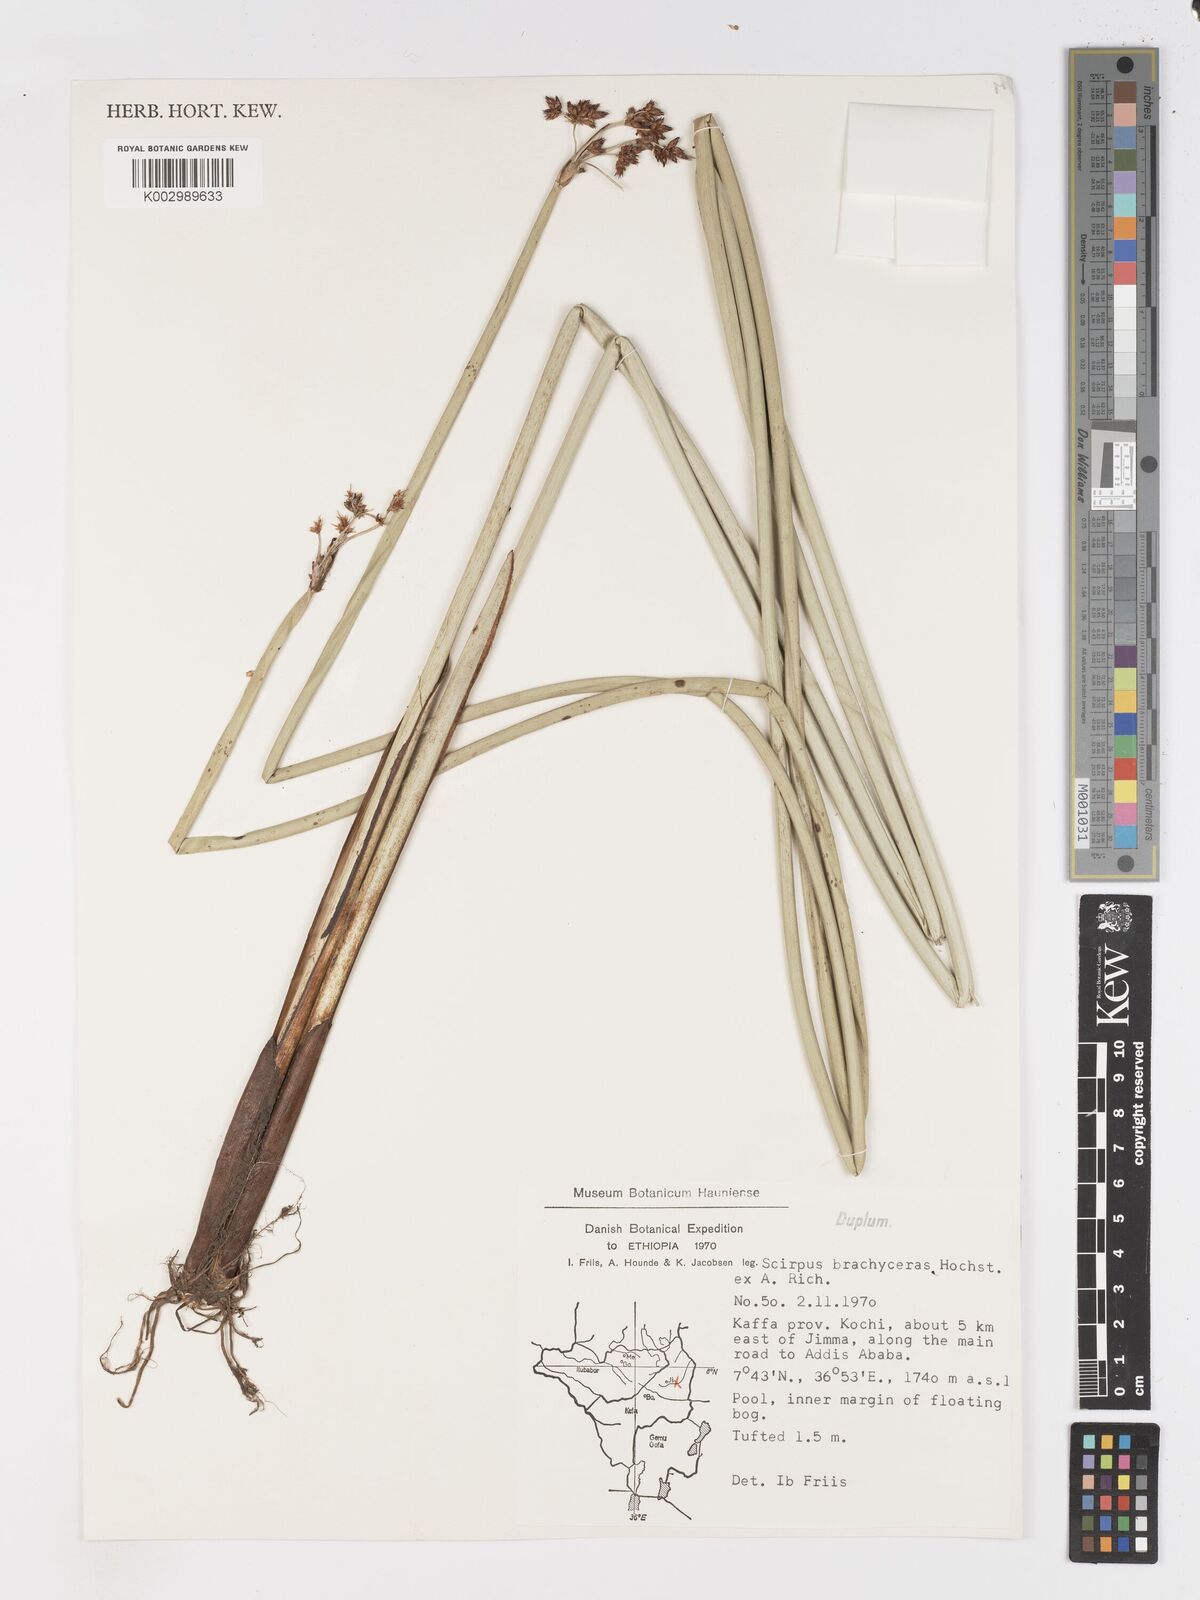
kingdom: Plantae
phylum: Tracheophyta
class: Liliopsida
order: Poales
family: Cyperaceae
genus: Schoenoplectiella
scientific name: Schoenoplectiella brachyceras
